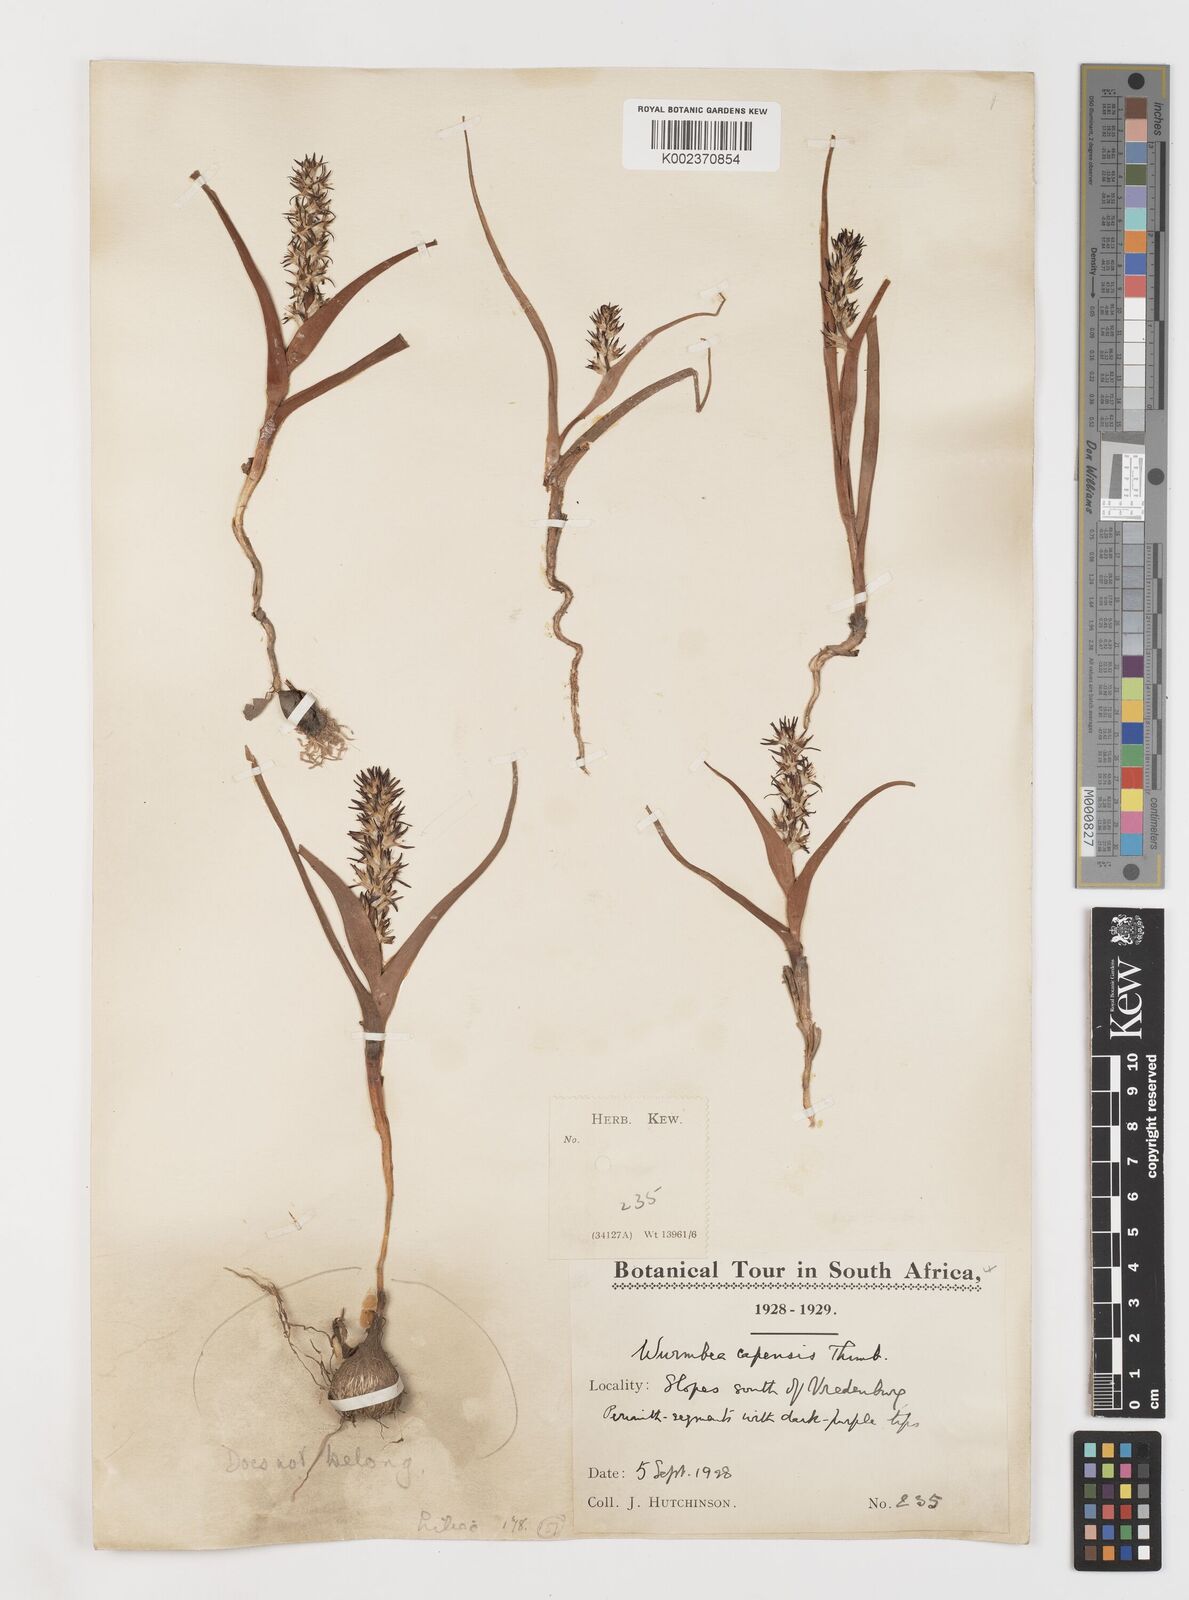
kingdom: Plantae
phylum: Tracheophyta
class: Liliopsida
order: Liliales
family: Colchicaceae
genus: Wurmbea
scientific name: Wurmbea capensis
